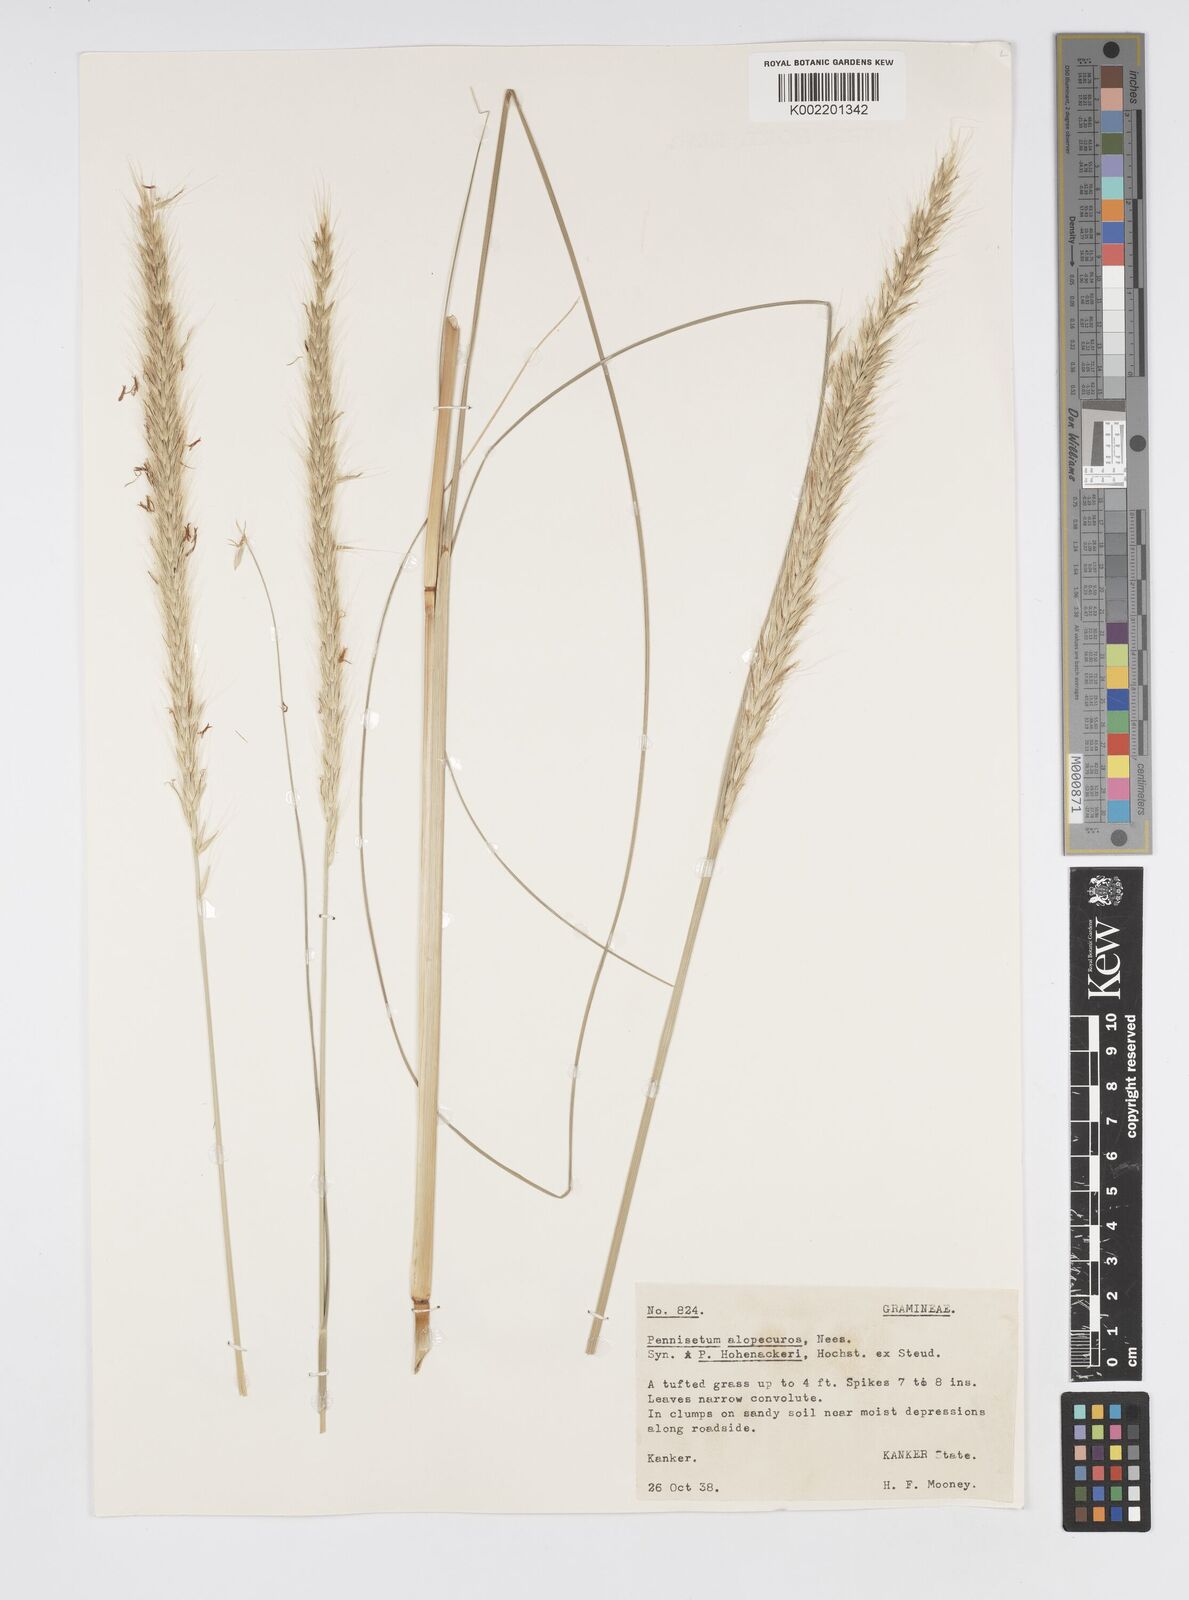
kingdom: Plantae
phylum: Tracheophyta
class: Liliopsida
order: Poales
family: Poaceae
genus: Cenchrus
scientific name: Cenchrus hohenackeri
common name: Moya grass
